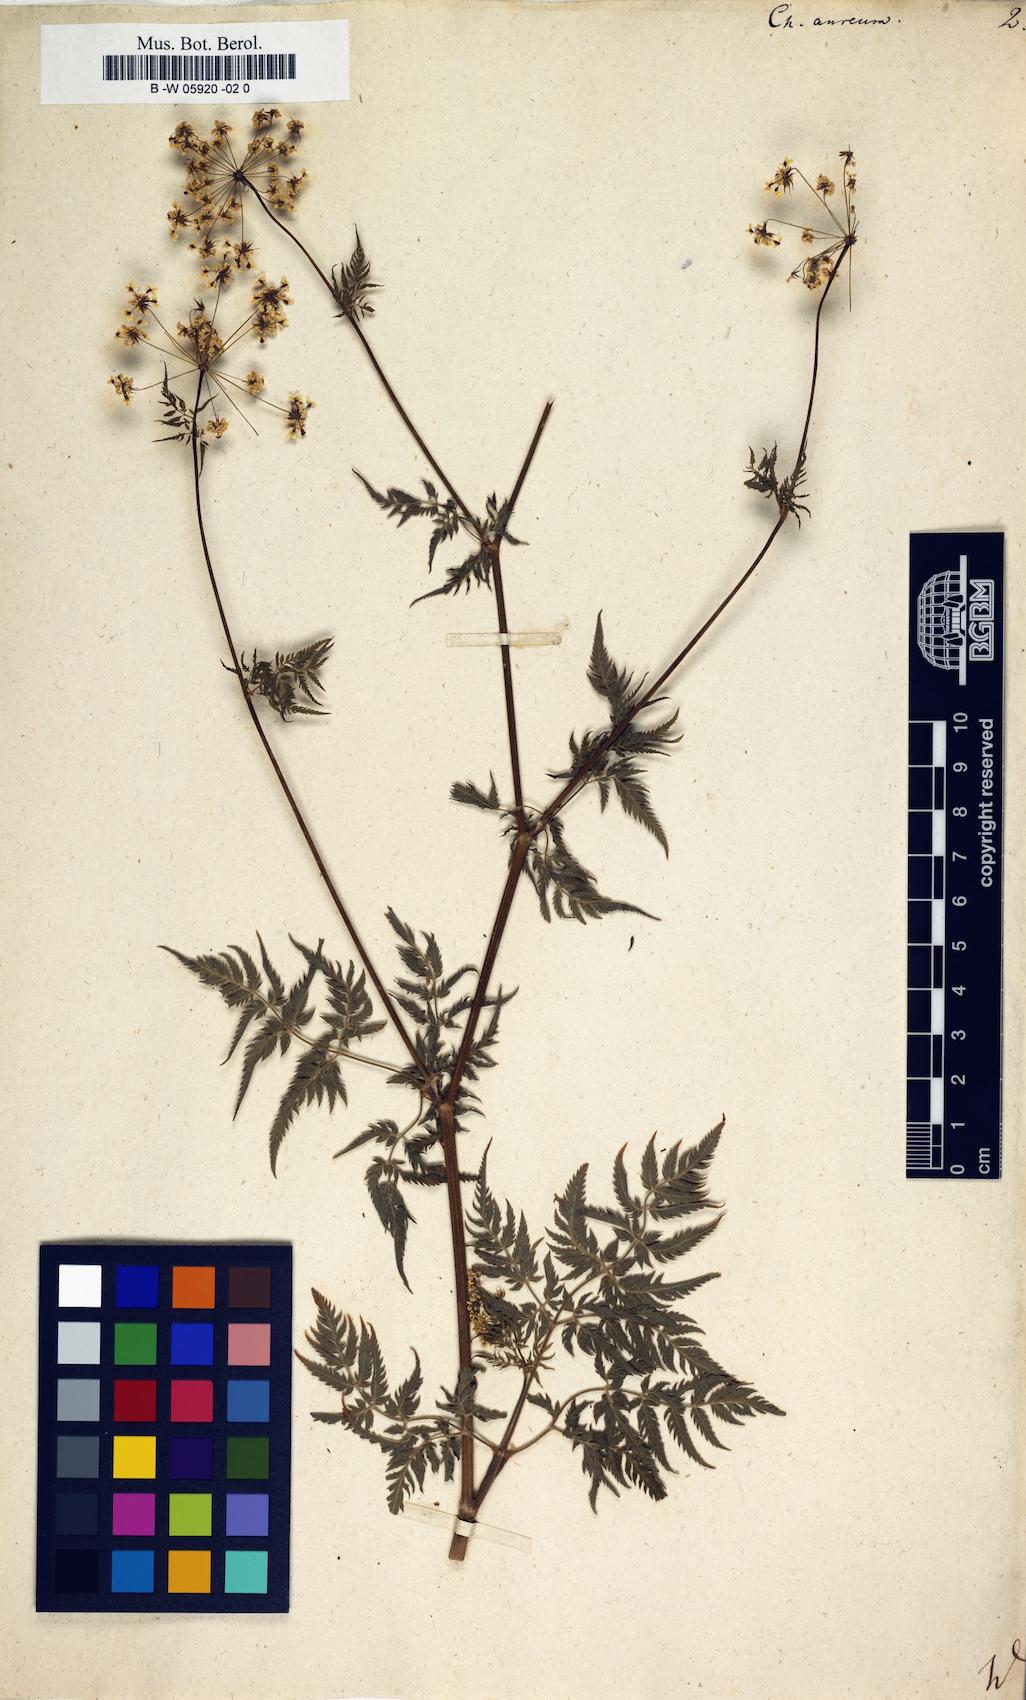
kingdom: Plantae
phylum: Tracheophyta
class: Magnoliopsida
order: Apiales
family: Apiaceae
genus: Chaerophyllum
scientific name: Chaerophyllum aureum
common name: Golden chervil
